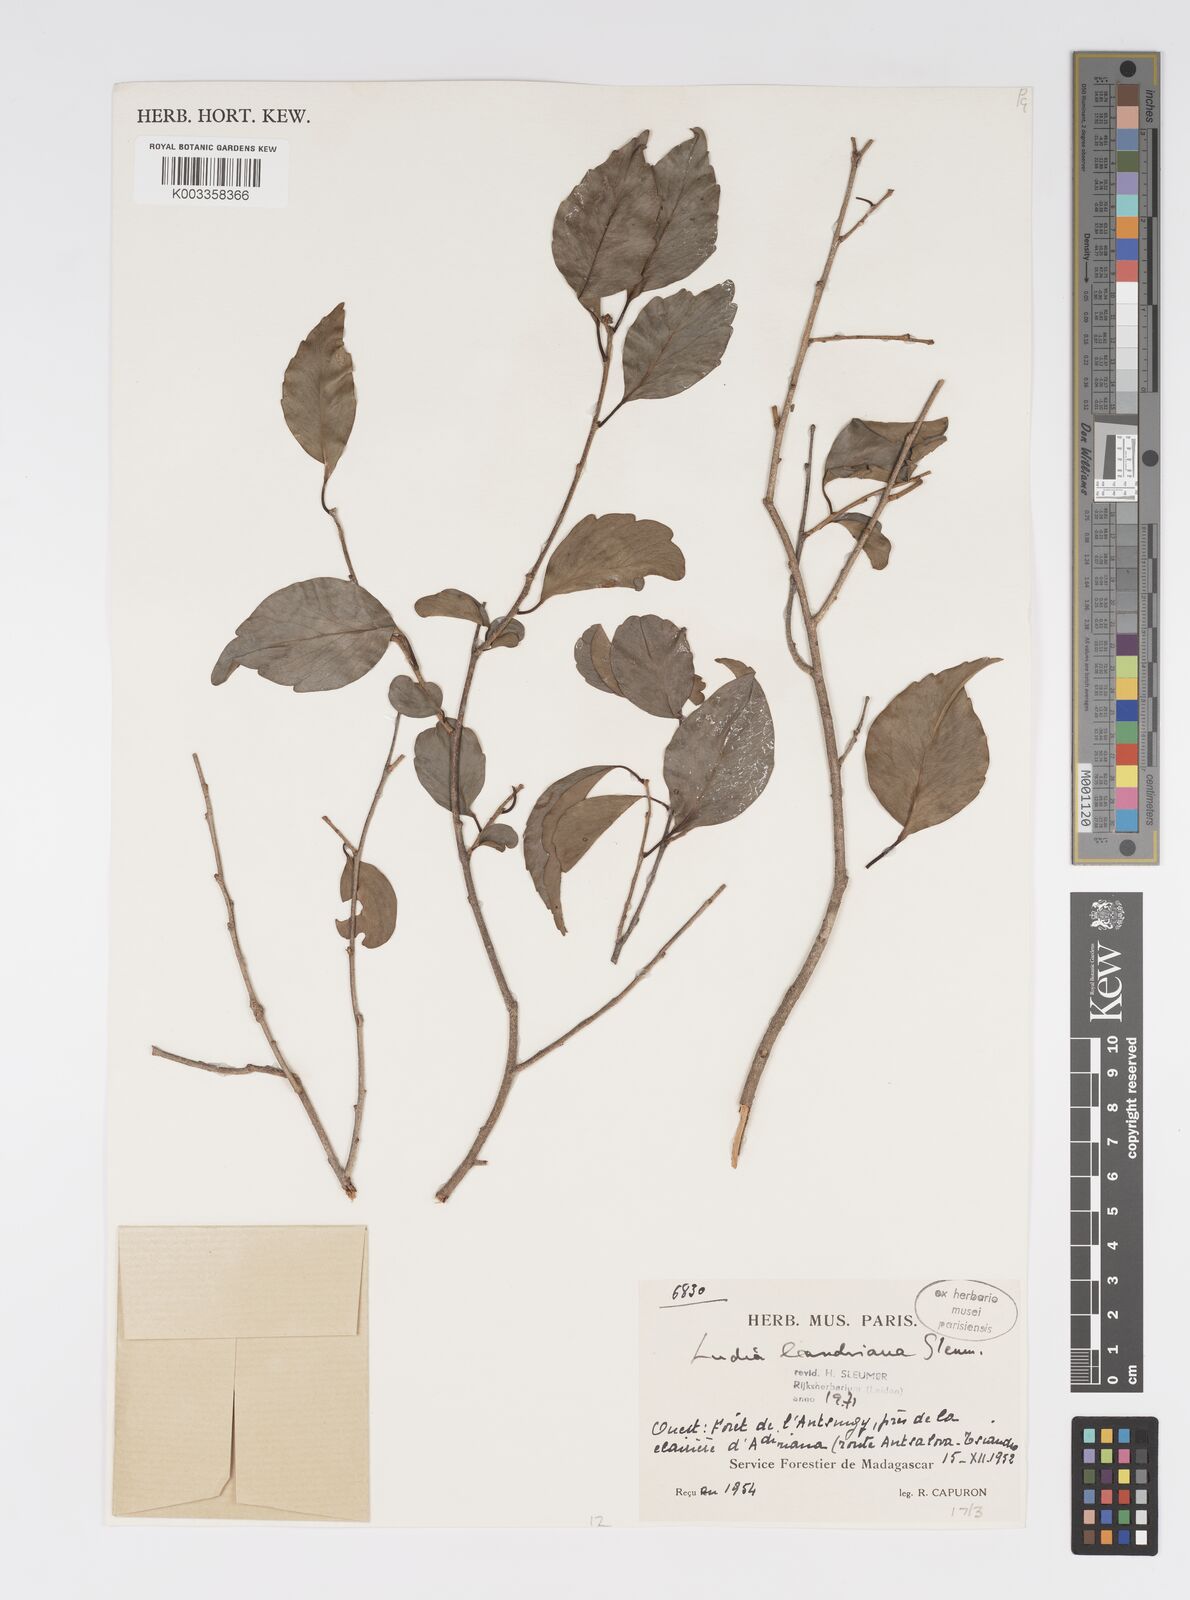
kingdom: Plantae
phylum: Tracheophyta
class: Magnoliopsida
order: Malpighiales
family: Salicaceae
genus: Ludia
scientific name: Ludia leandriana
